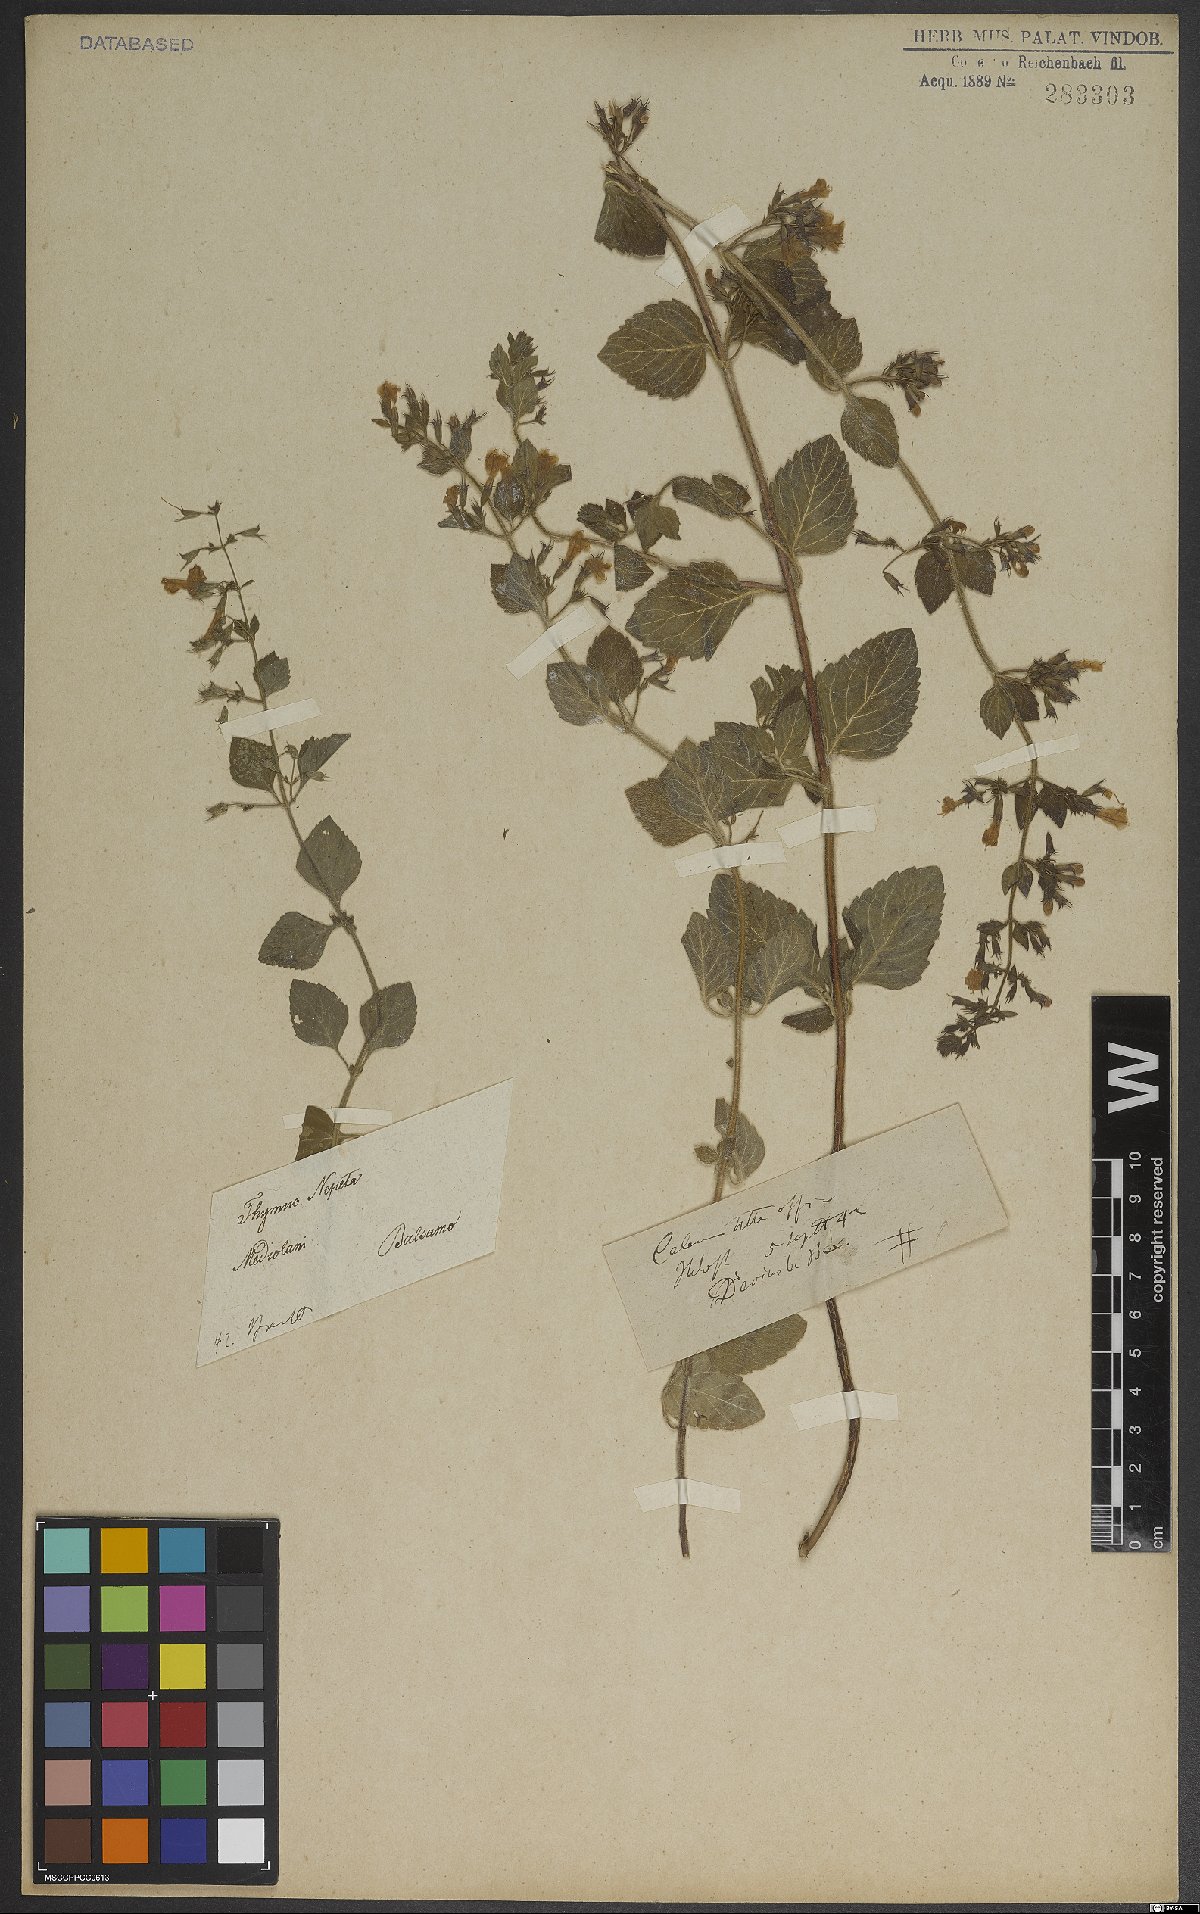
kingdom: Plantae
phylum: Tracheophyta
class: Magnoliopsida
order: Lamiales
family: Lamiaceae
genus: Clinopodium
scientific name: Clinopodium nepeta
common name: Lesser calamint
